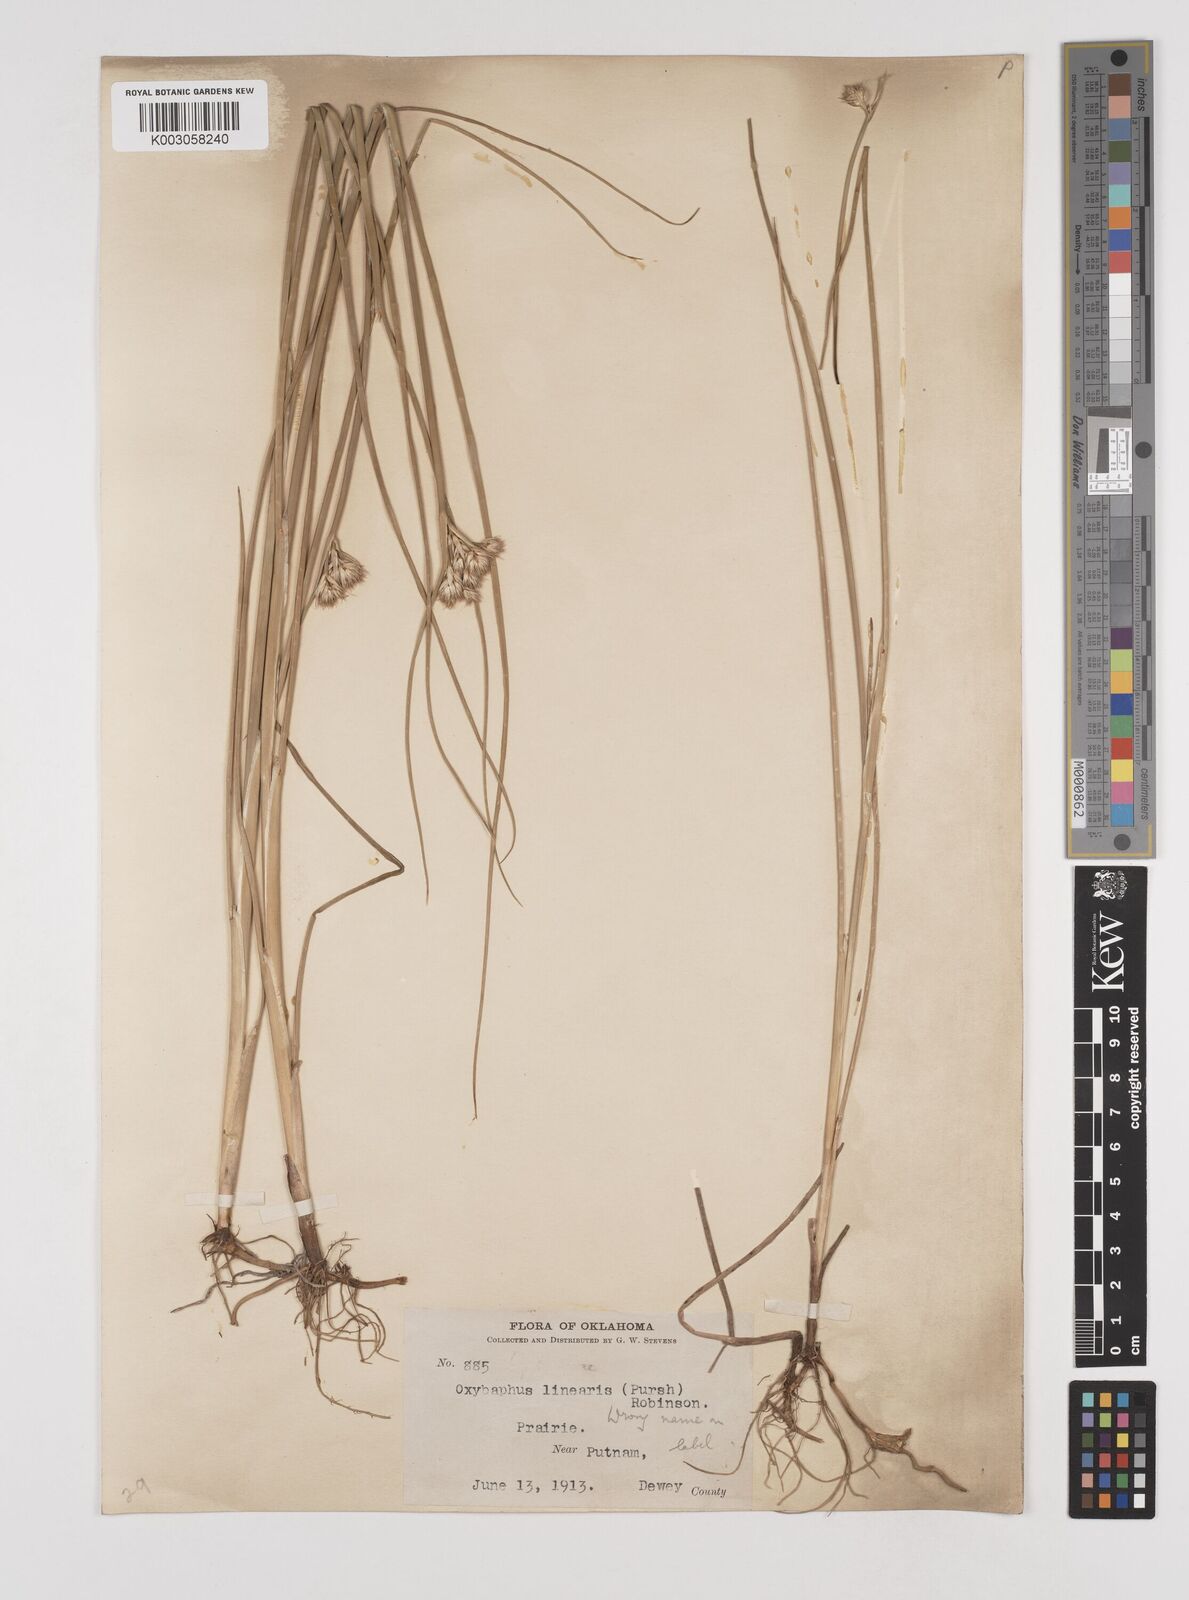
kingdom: Plantae
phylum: Tracheophyta
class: Liliopsida
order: Poales
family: Juncaceae
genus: Juncus
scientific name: Juncus
